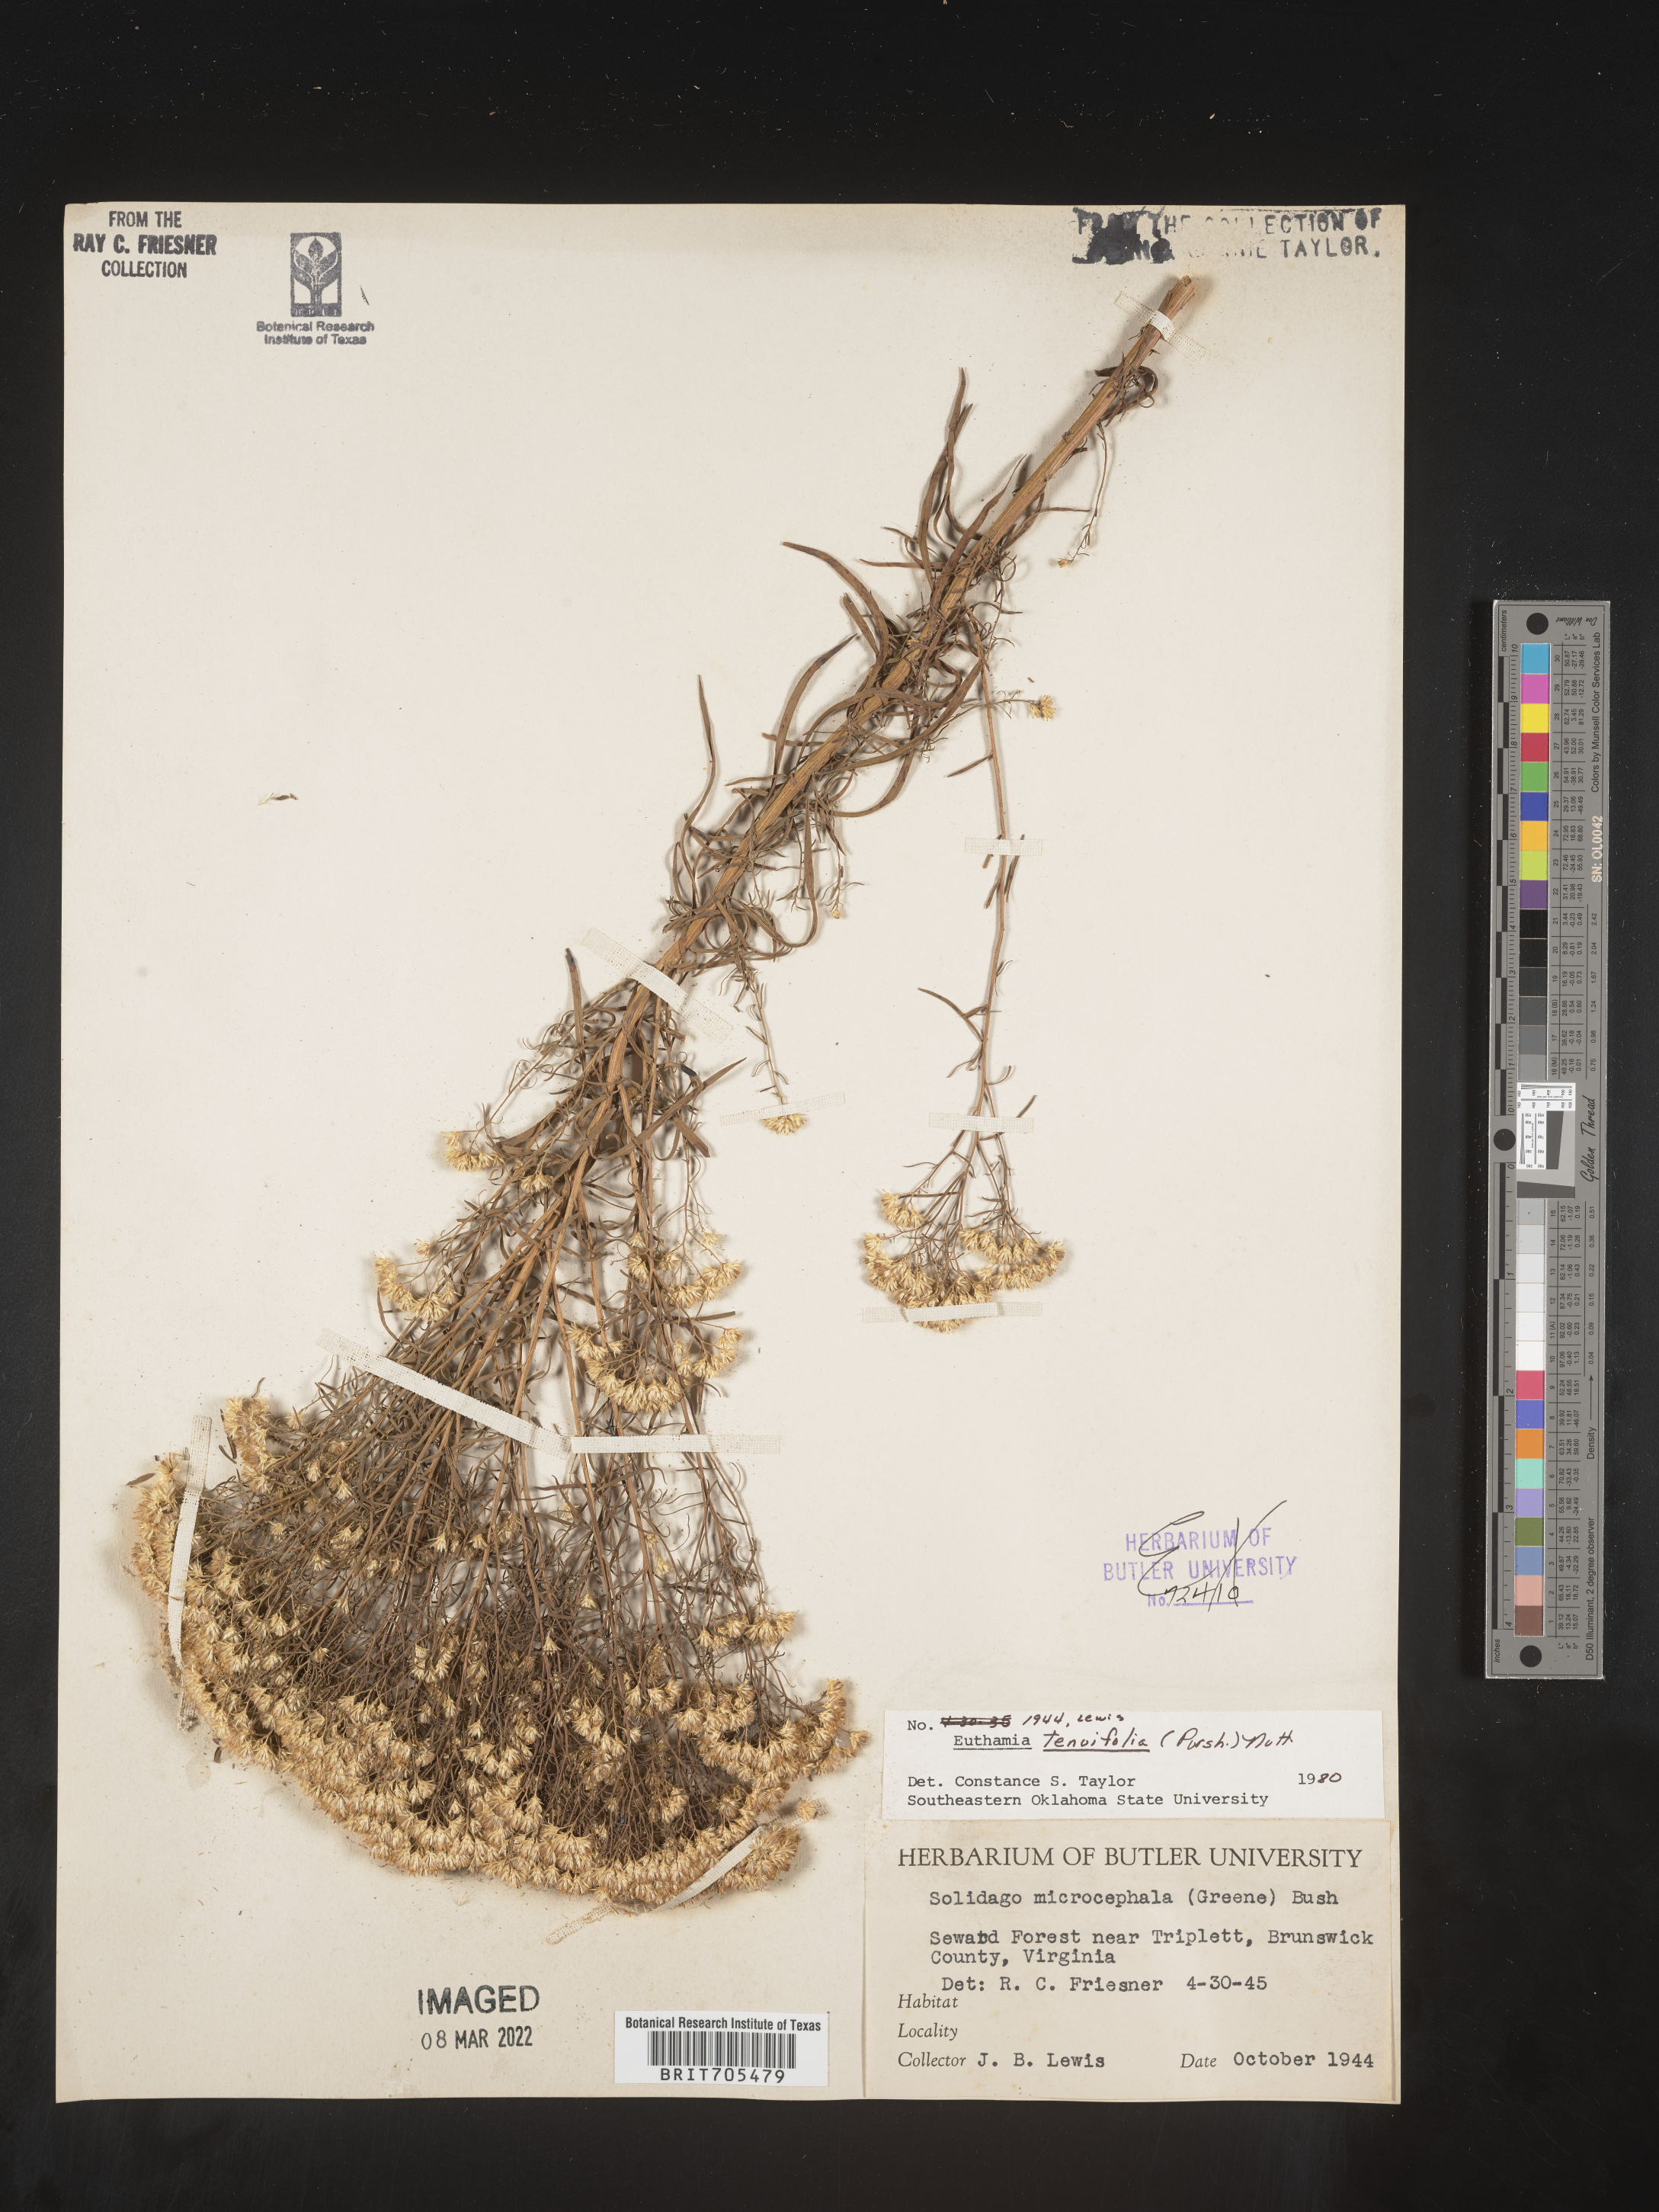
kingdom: Plantae
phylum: Tracheophyta
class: Magnoliopsida
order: Asterales
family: Asteraceae
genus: Euthamia
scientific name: Euthamia caroliniana
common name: Coastal plain goldentop
